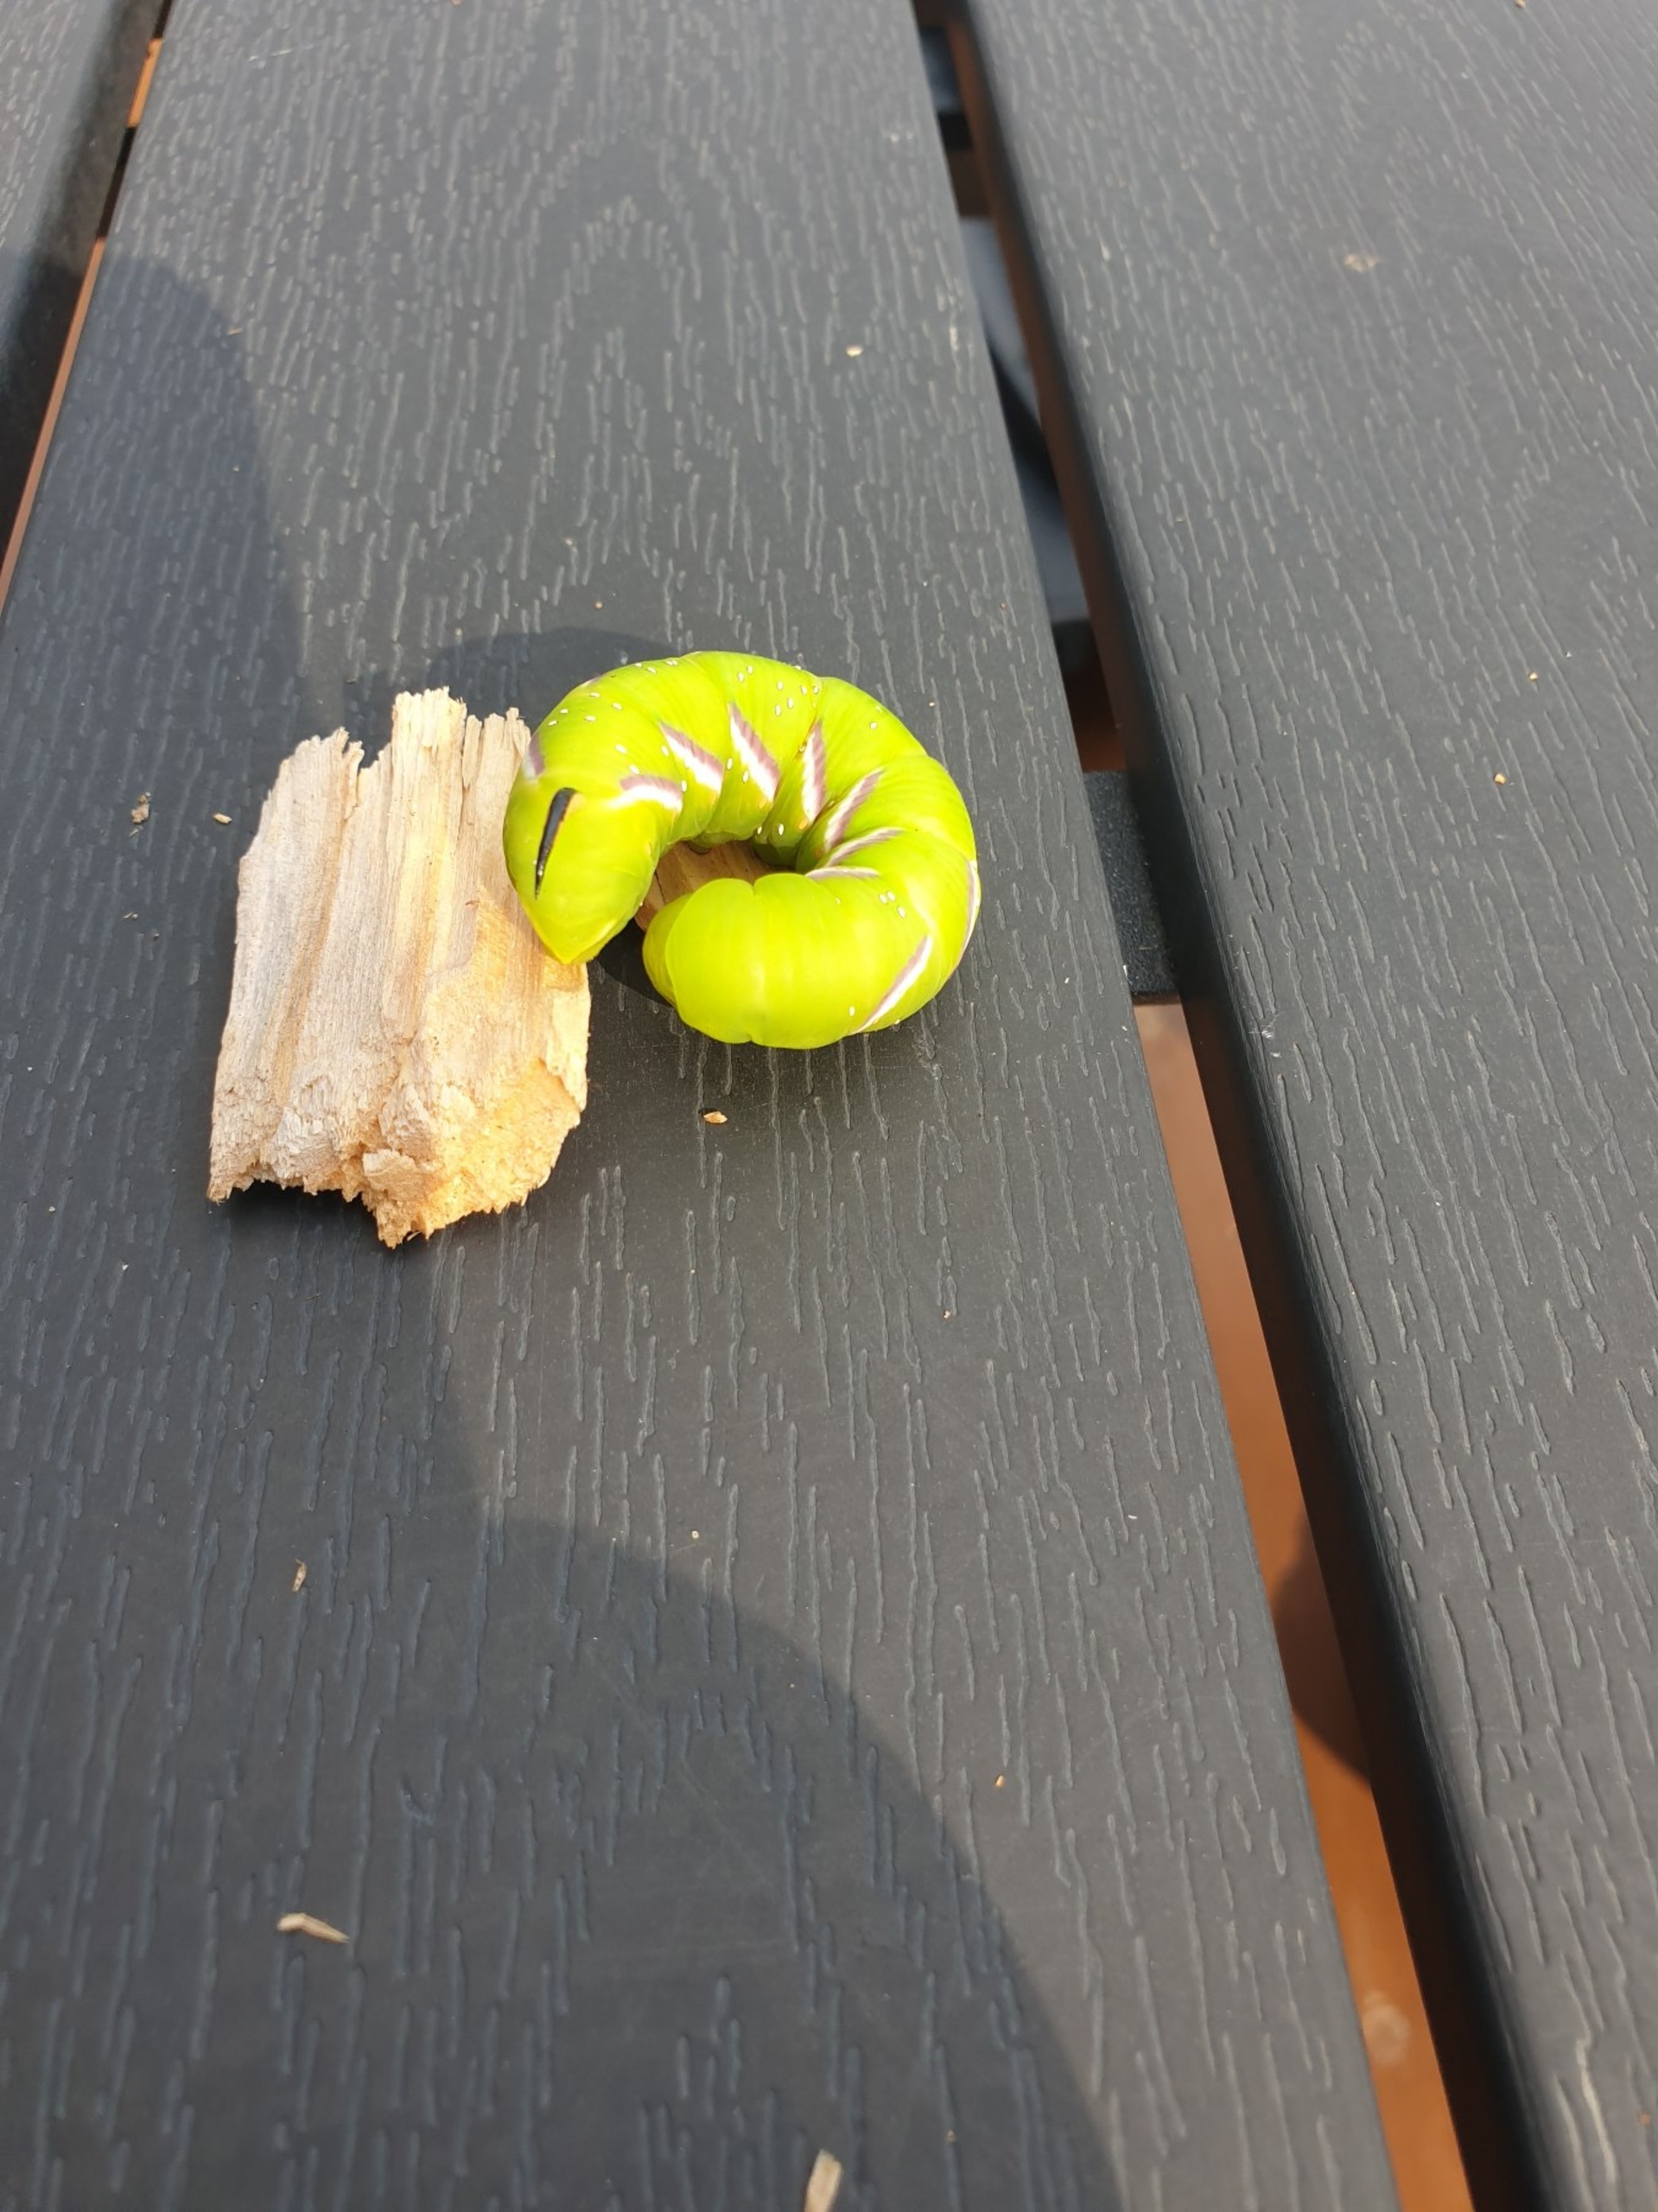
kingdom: Animalia
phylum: Arthropoda
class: Insecta
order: Lepidoptera
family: Sphingidae
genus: Sphinx
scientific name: Sphinx ligustri
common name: Ligustersværmer
